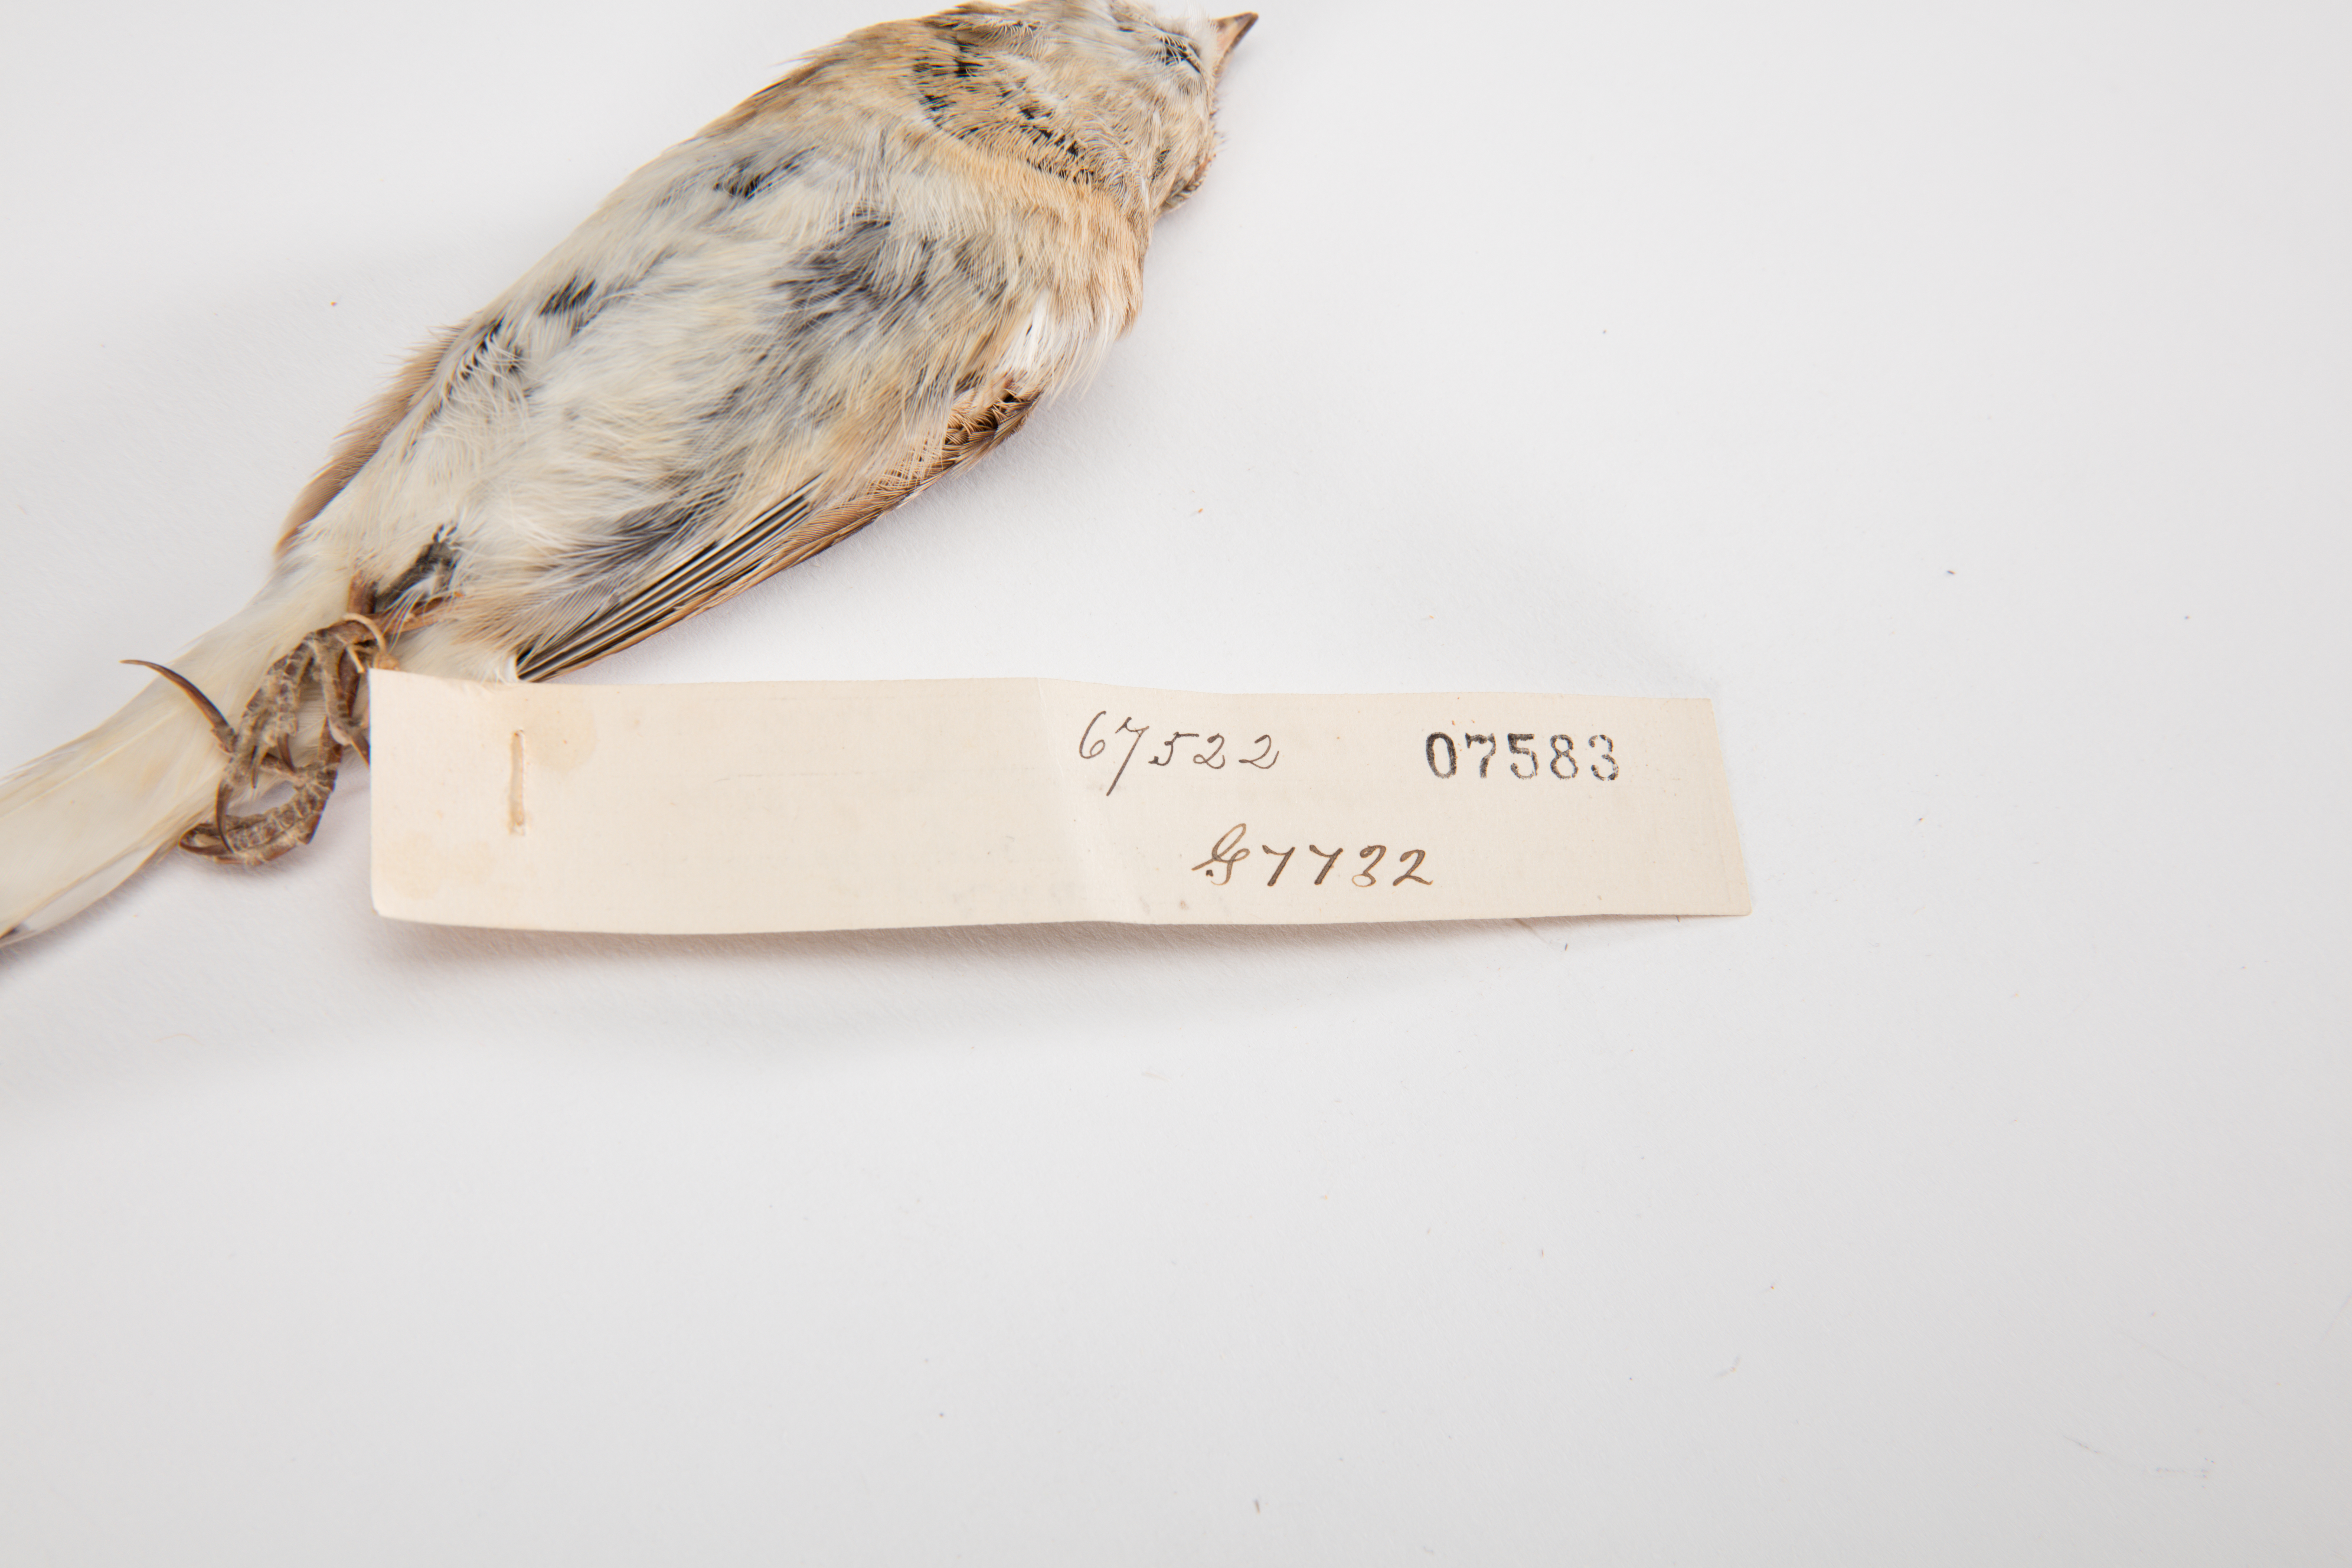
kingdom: Animalia
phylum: Chordata
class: Aves
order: Passeriformes
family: Calcariidae
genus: Rhynchophanes
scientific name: Rhynchophanes mccownii
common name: Mccown's longspur
